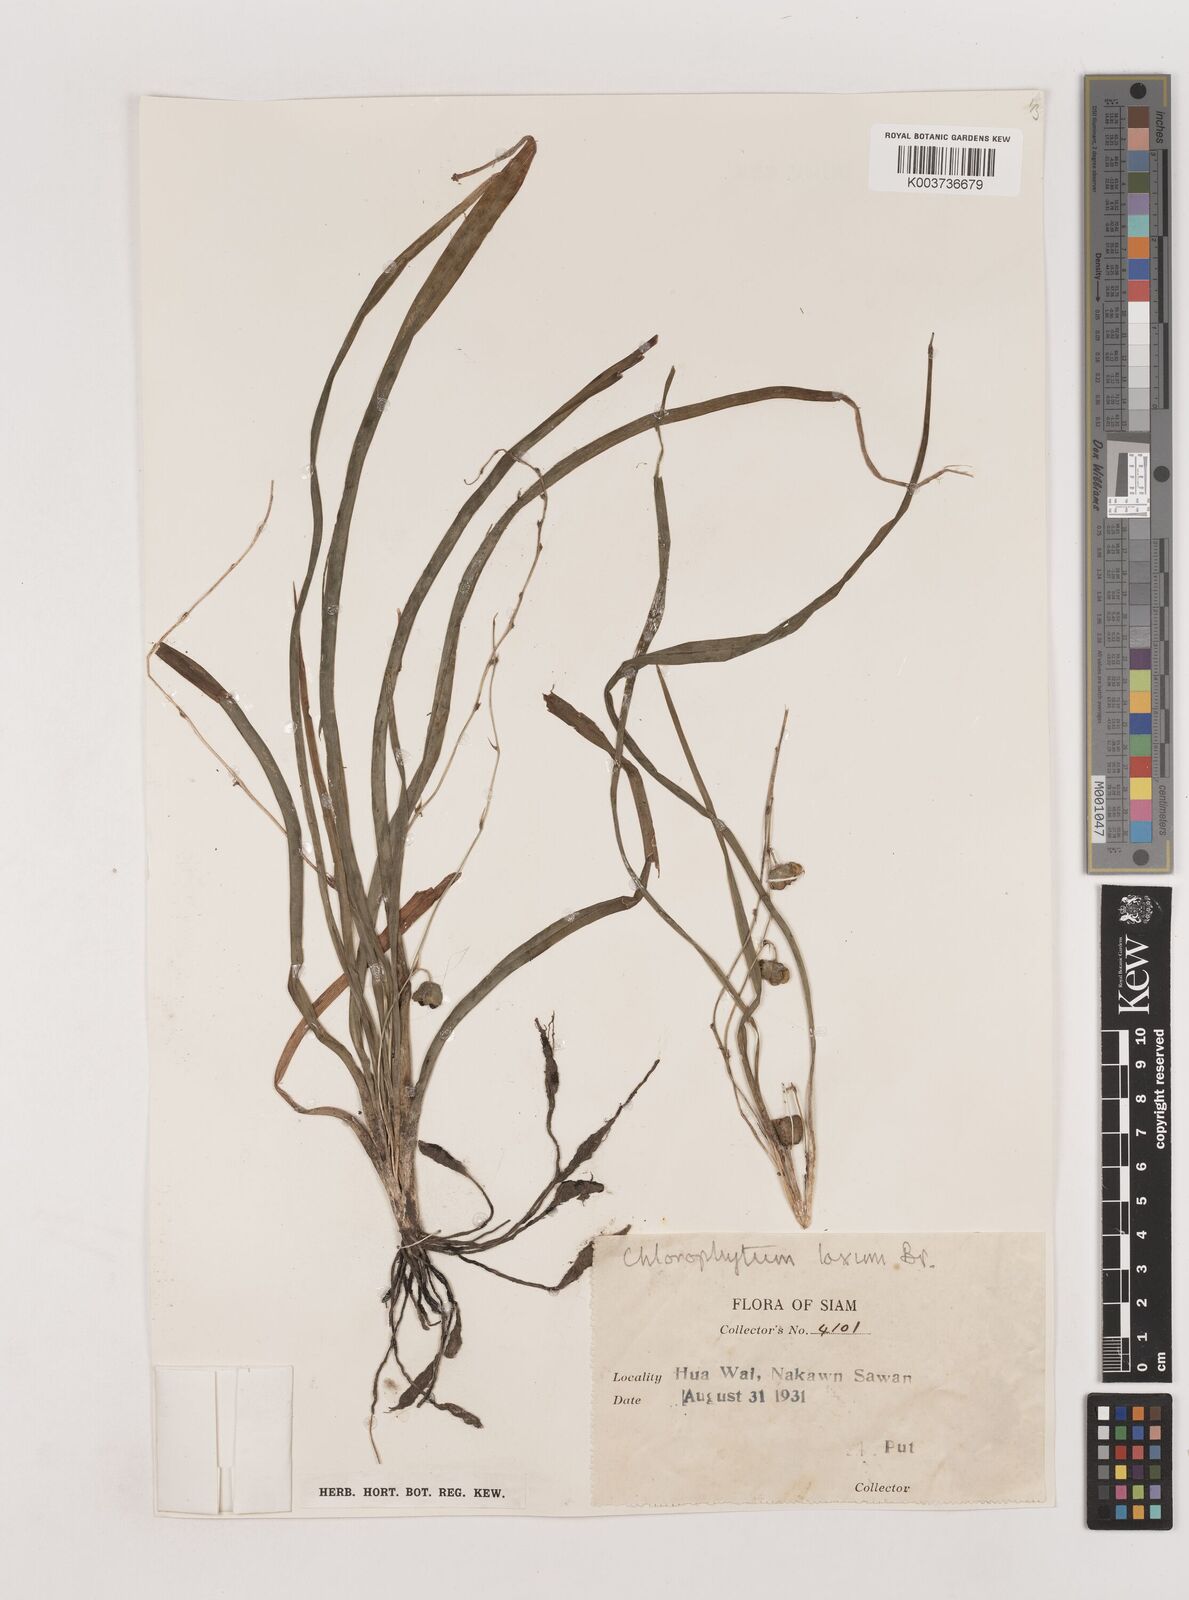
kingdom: Plantae
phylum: Tracheophyta
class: Liliopsida
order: Asparagales
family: Asparagaceae
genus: Chlorophytum
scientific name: Chlorophytum laxum
